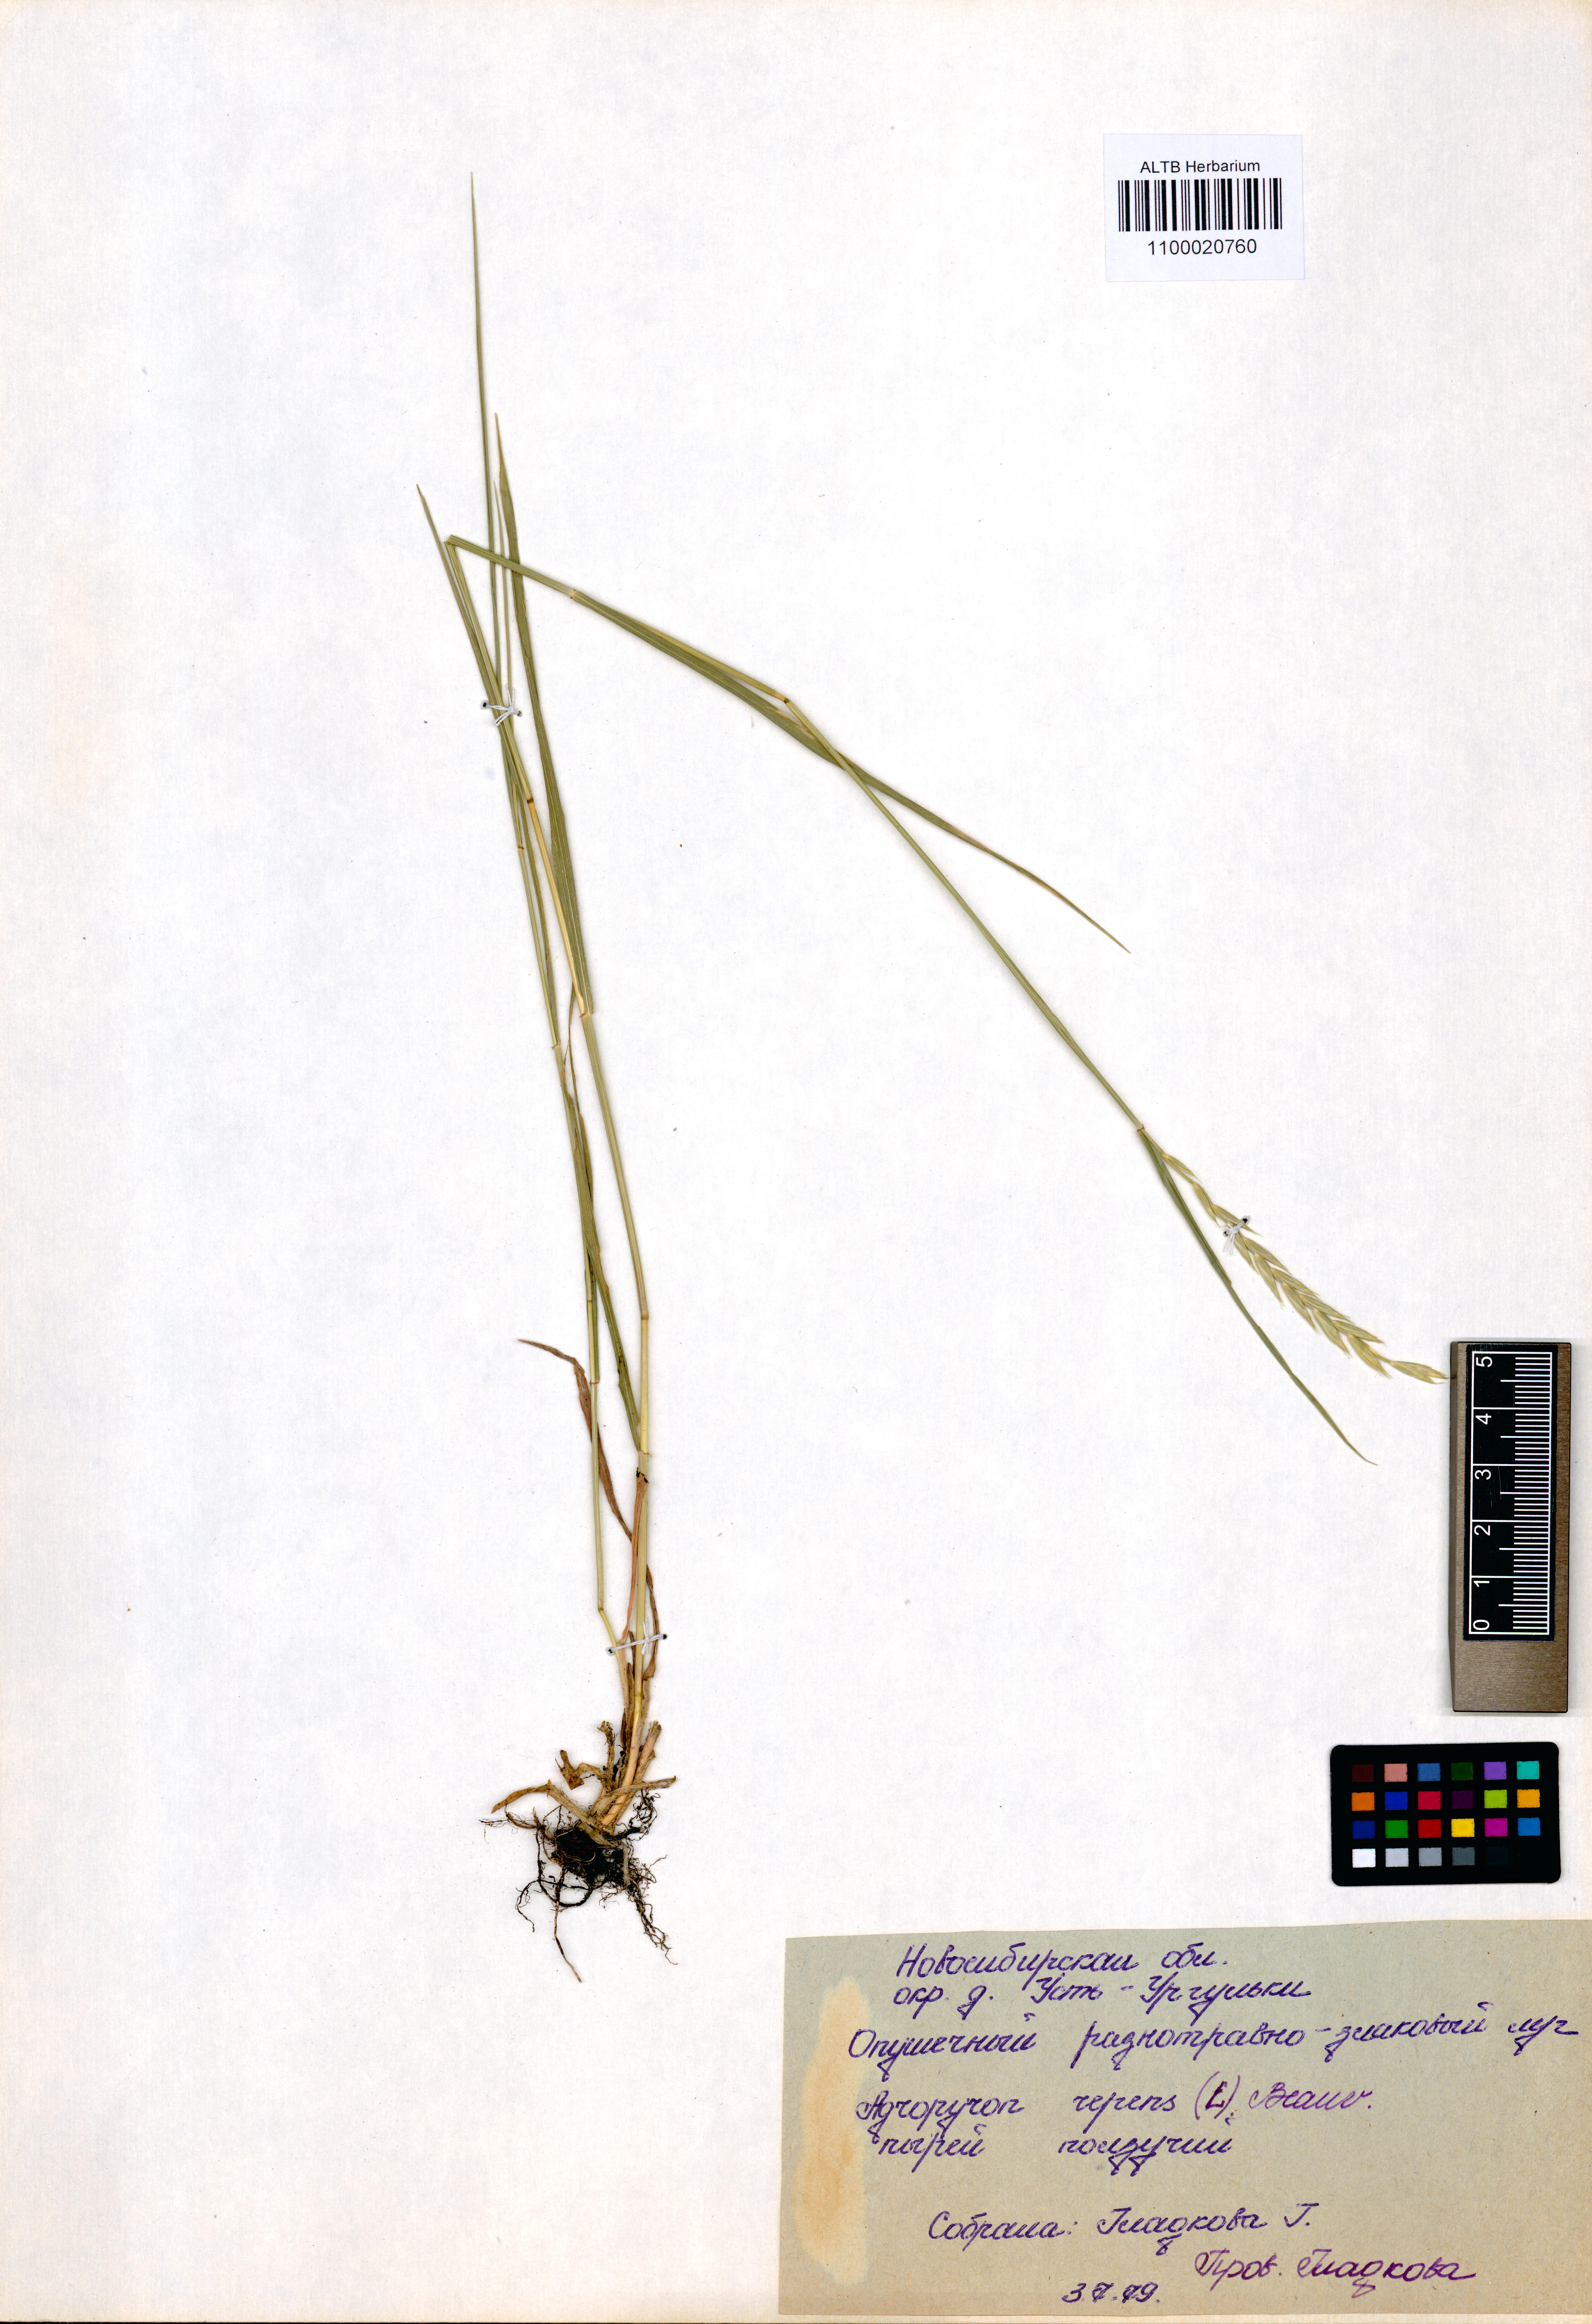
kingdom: Plantae
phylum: Tracheophyta
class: Liliopsida
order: Poales
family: Poaceae
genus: Elymus
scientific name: Elymus repens
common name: Quackgrass
